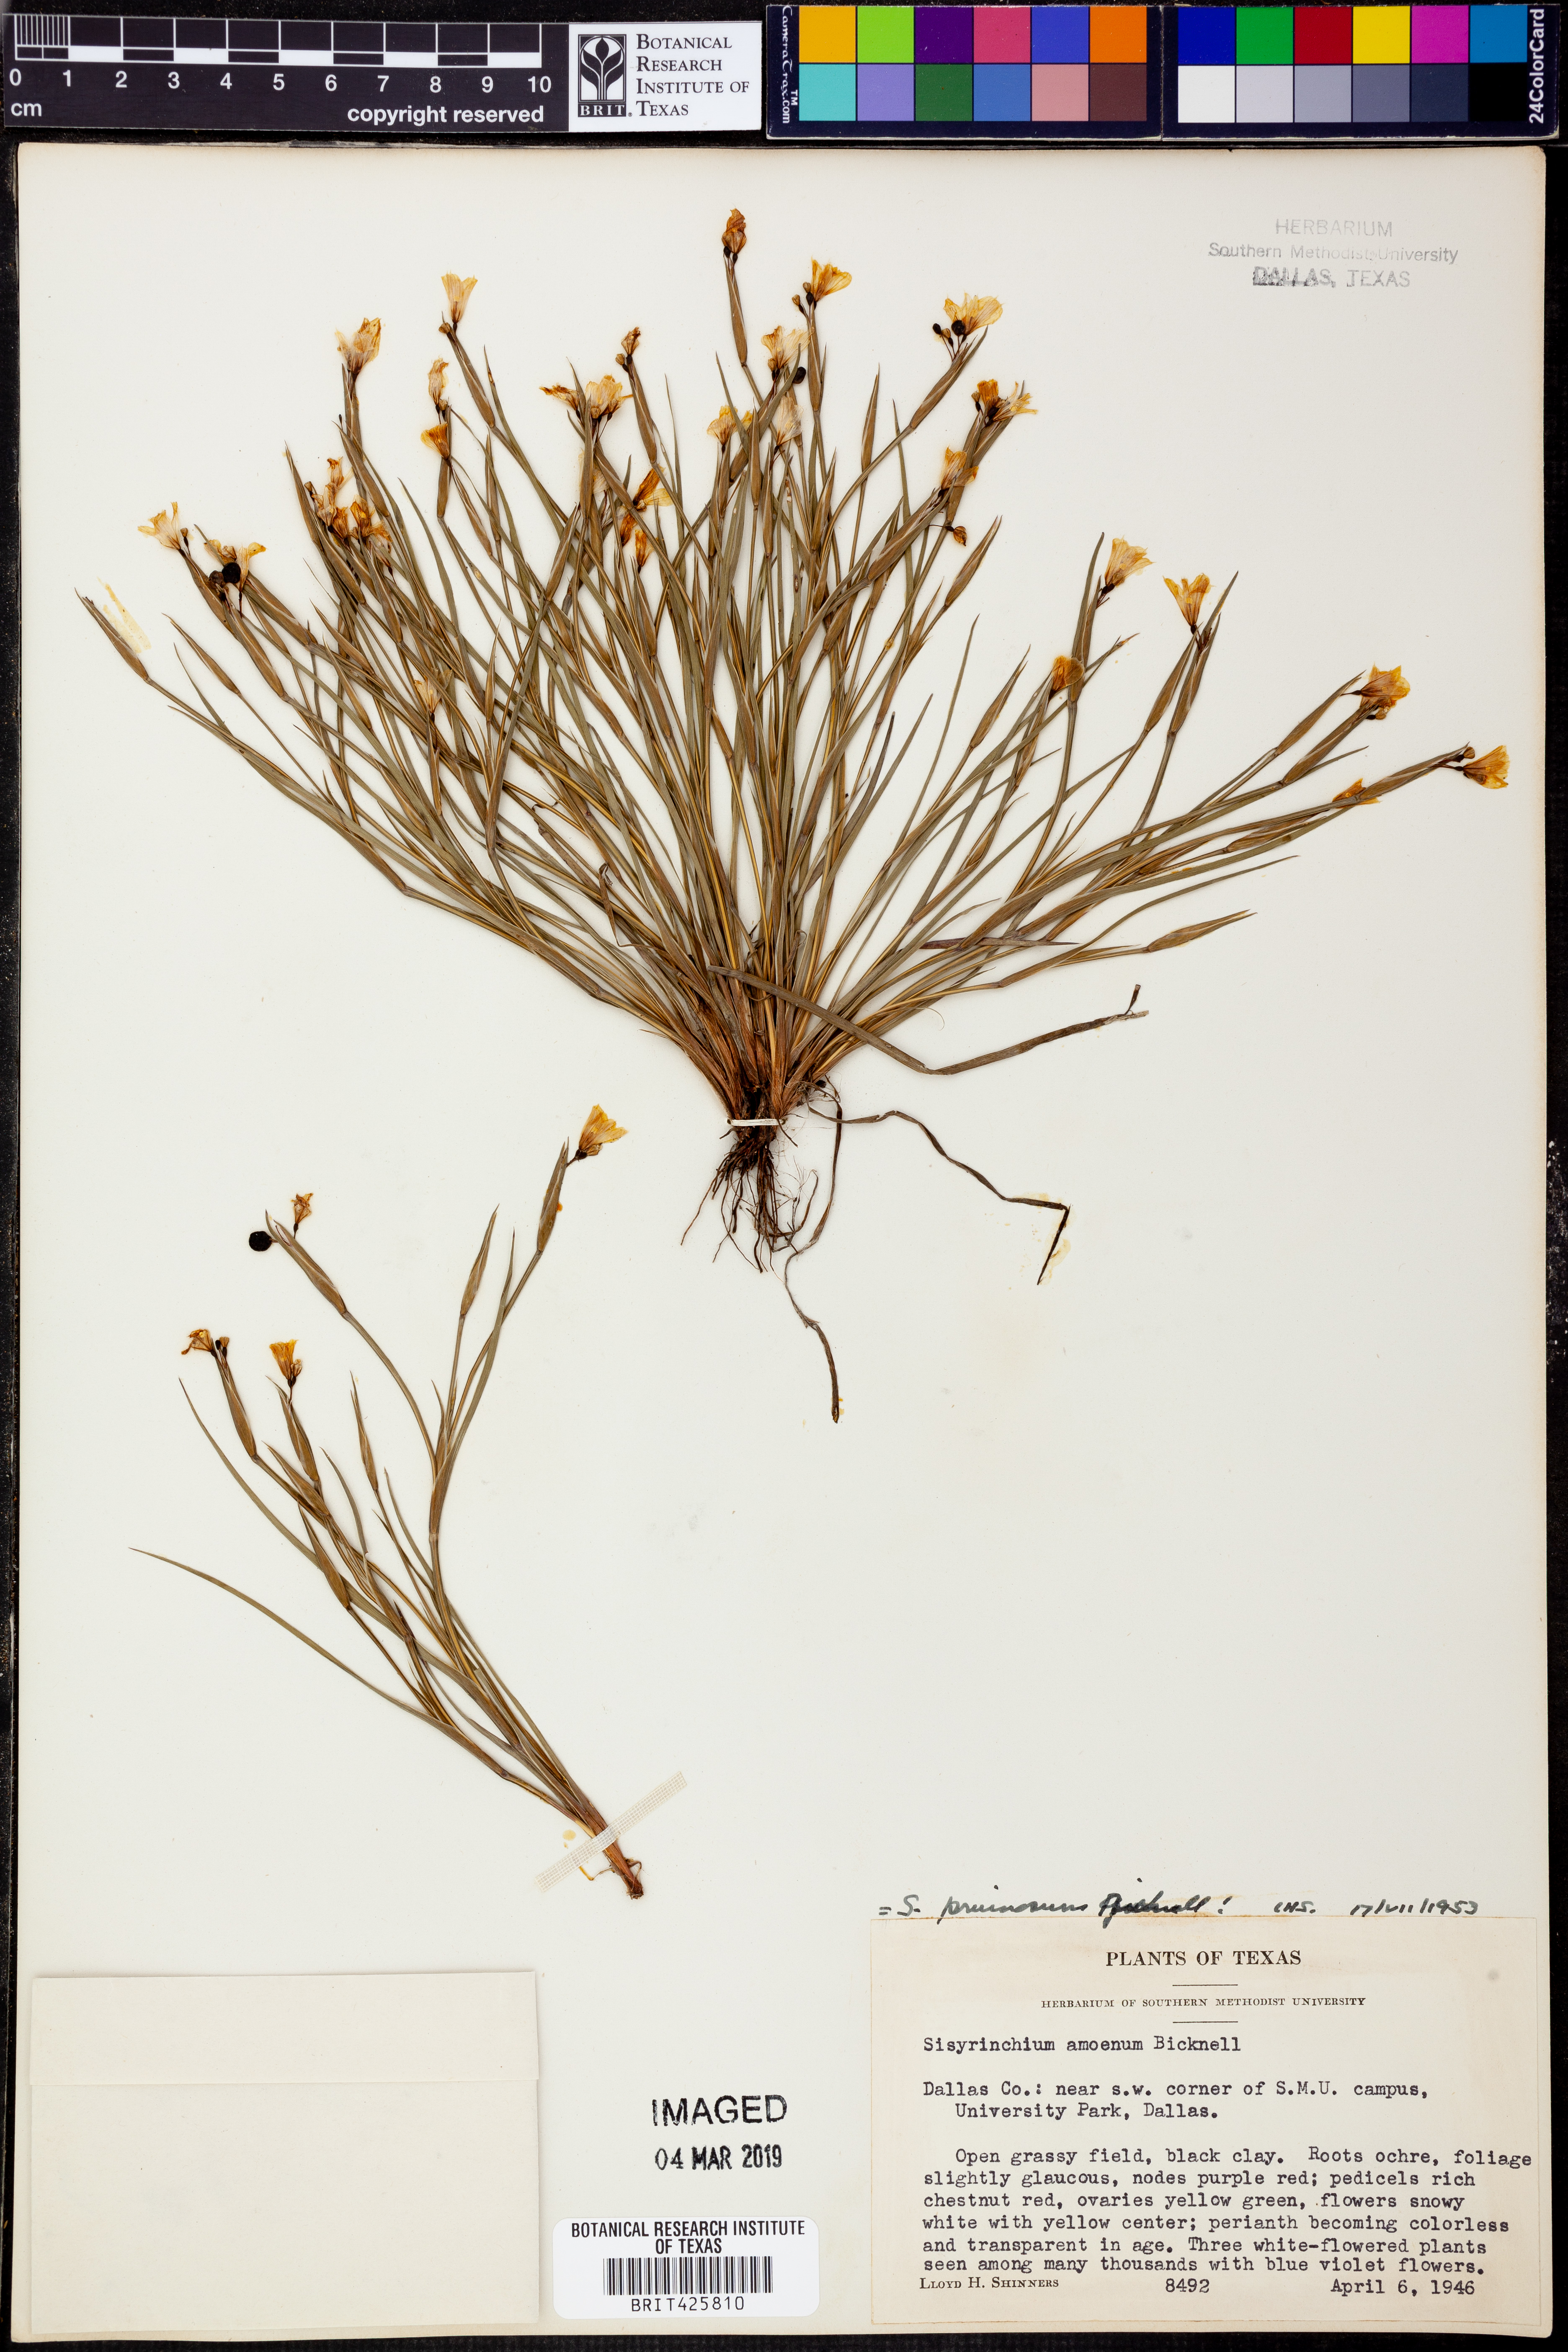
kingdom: Plantae
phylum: Tracheophyta
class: Liliopsida
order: Asparagales
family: Iridaceae
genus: Sisyrinchium
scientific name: Sisyrinchium pruinosum
